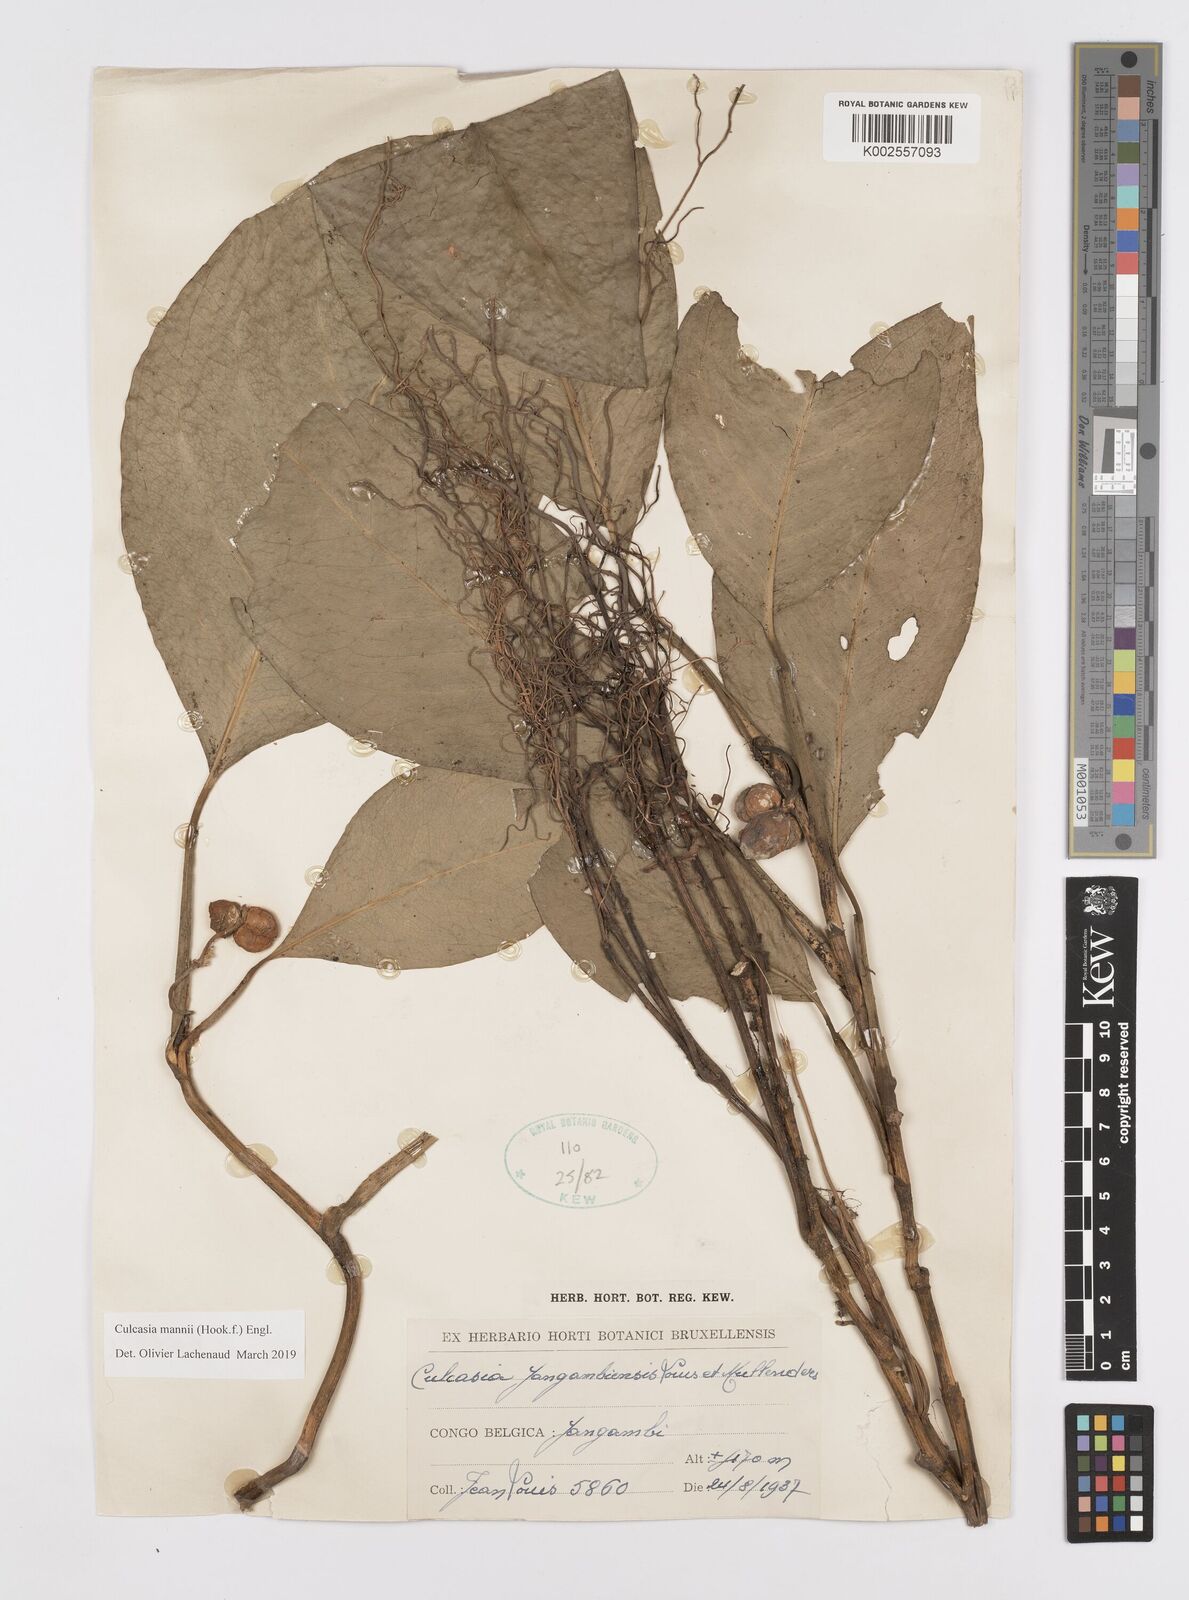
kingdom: Plantae
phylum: Tracheophyta
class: Liliopsida
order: Alismatales
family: Araceae
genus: Culcasia
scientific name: Culcasia mannii
